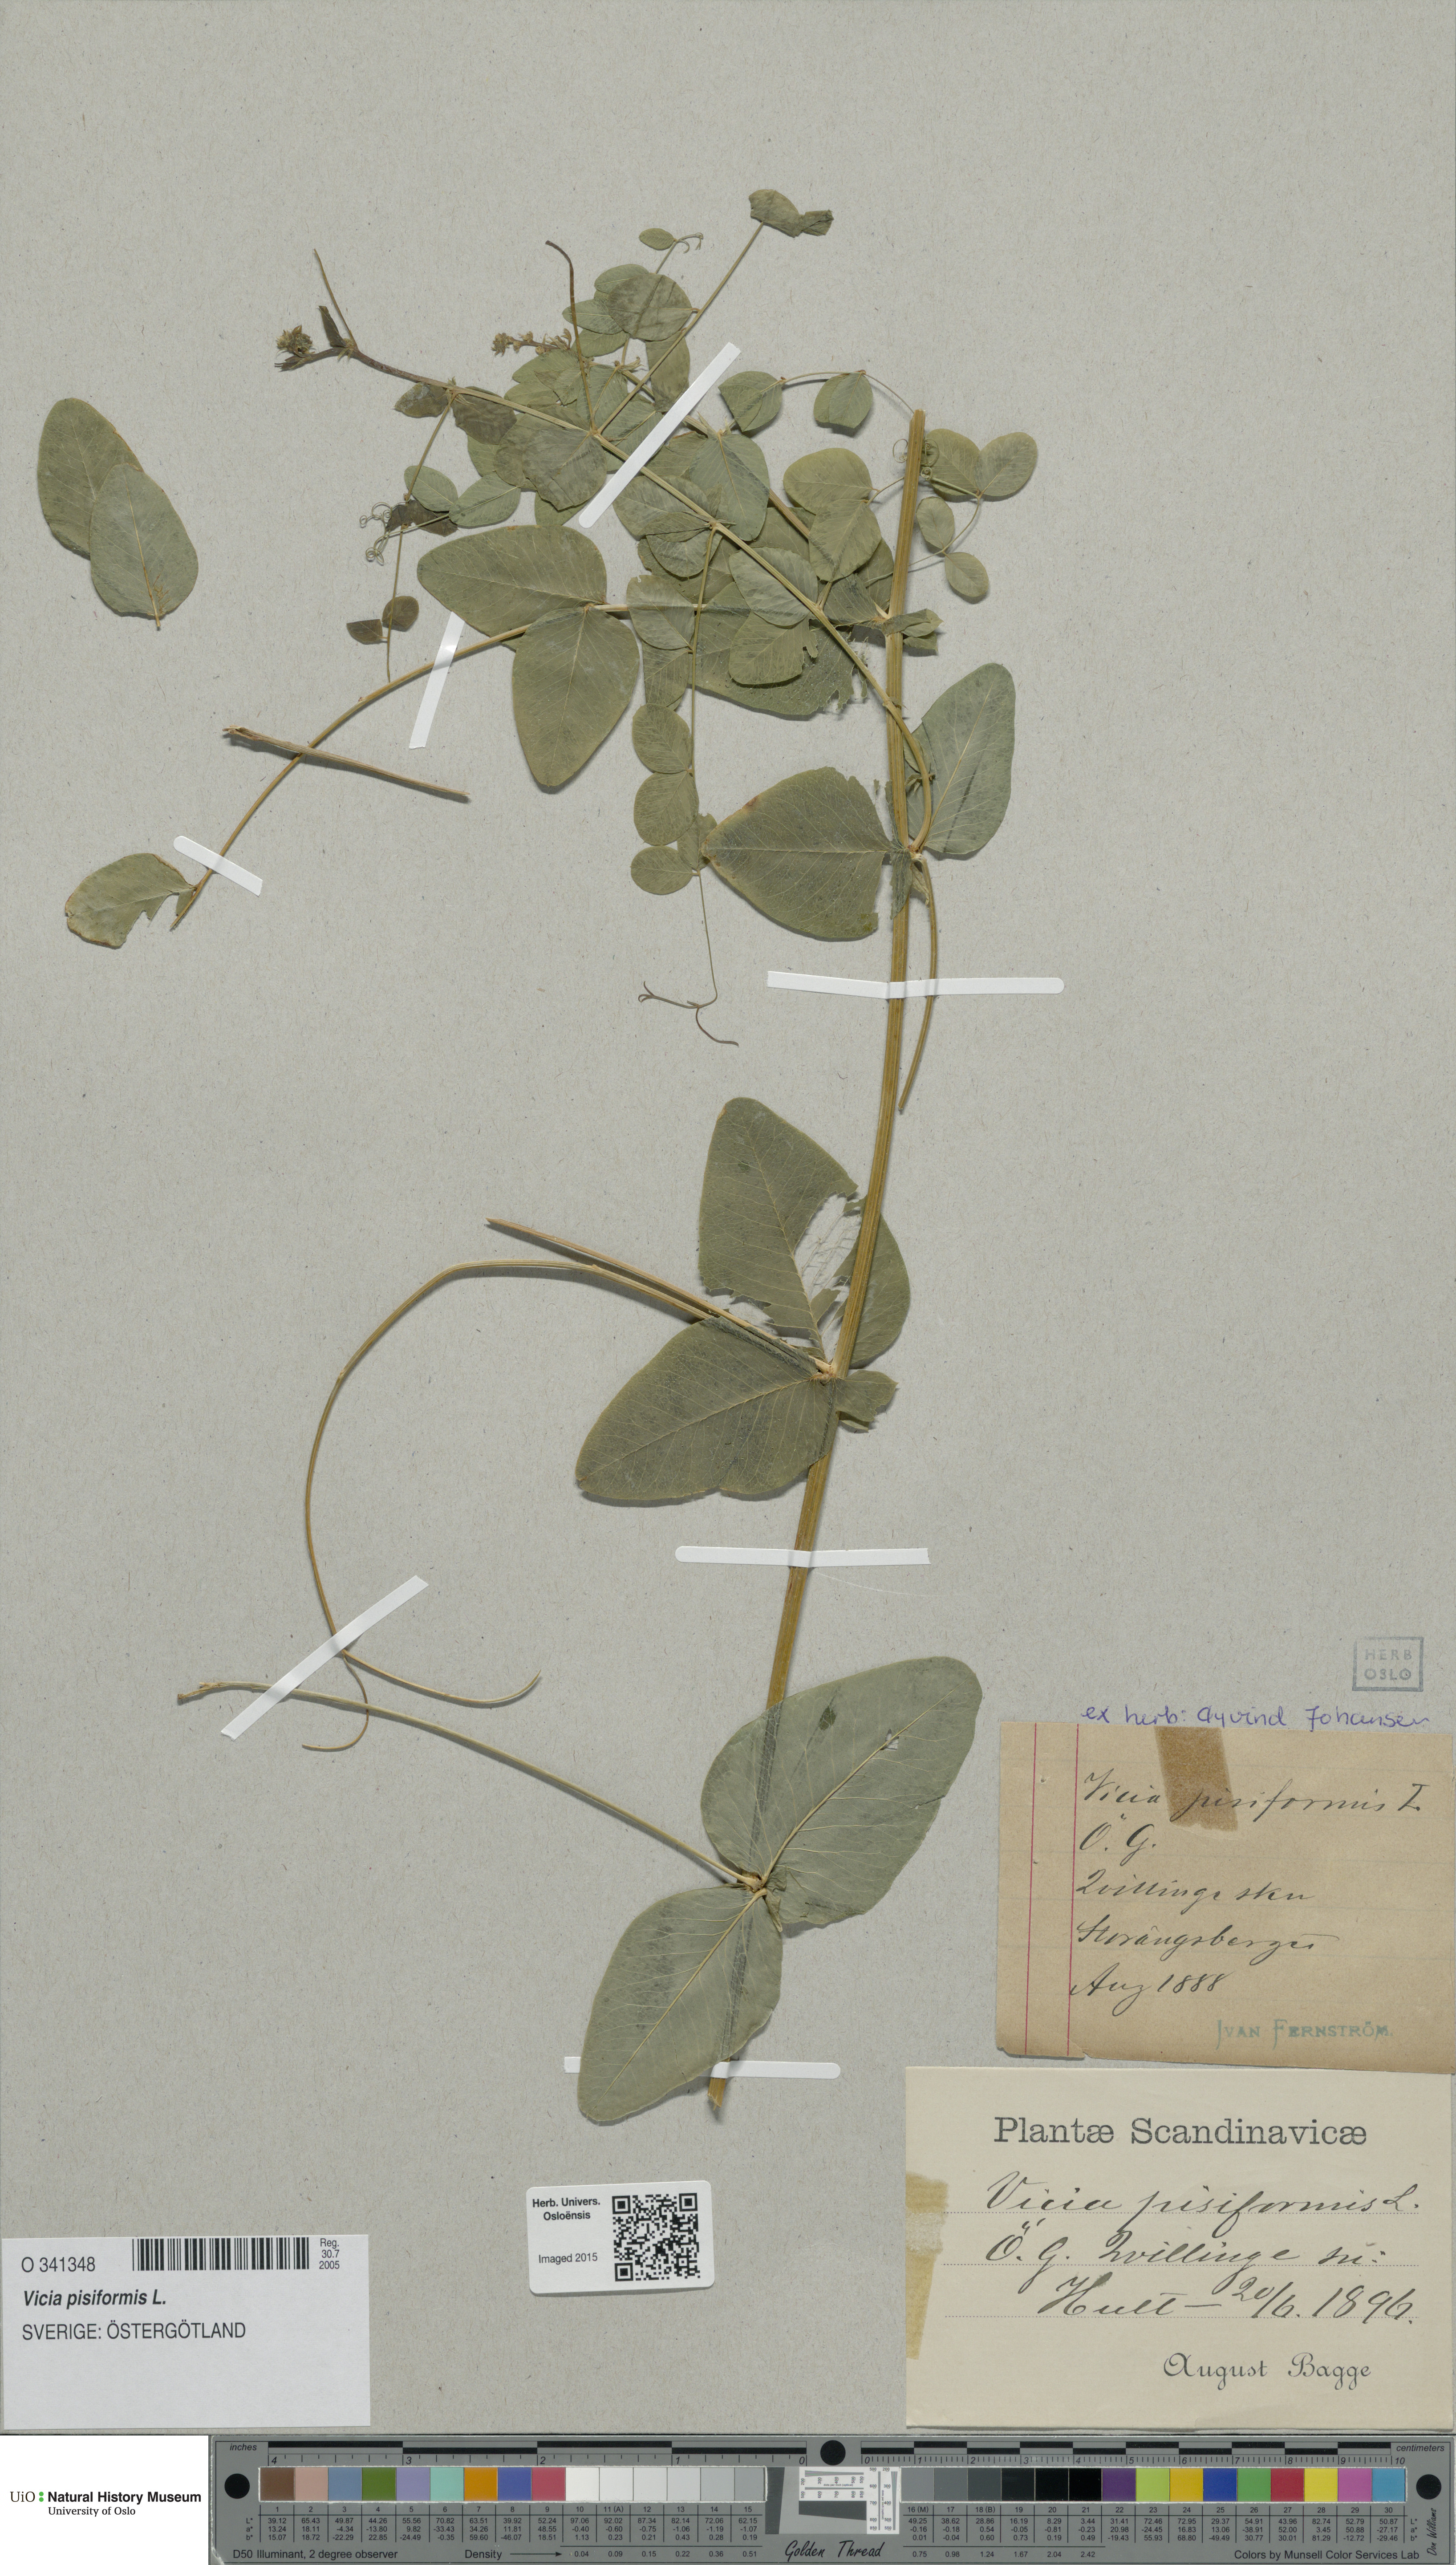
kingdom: Plantae
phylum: Tracheophyta
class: Magnoliopsida
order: Fabales
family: Fabaceae
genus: Vicia
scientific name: Vicia pisiformis
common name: Pale-flower vetch
